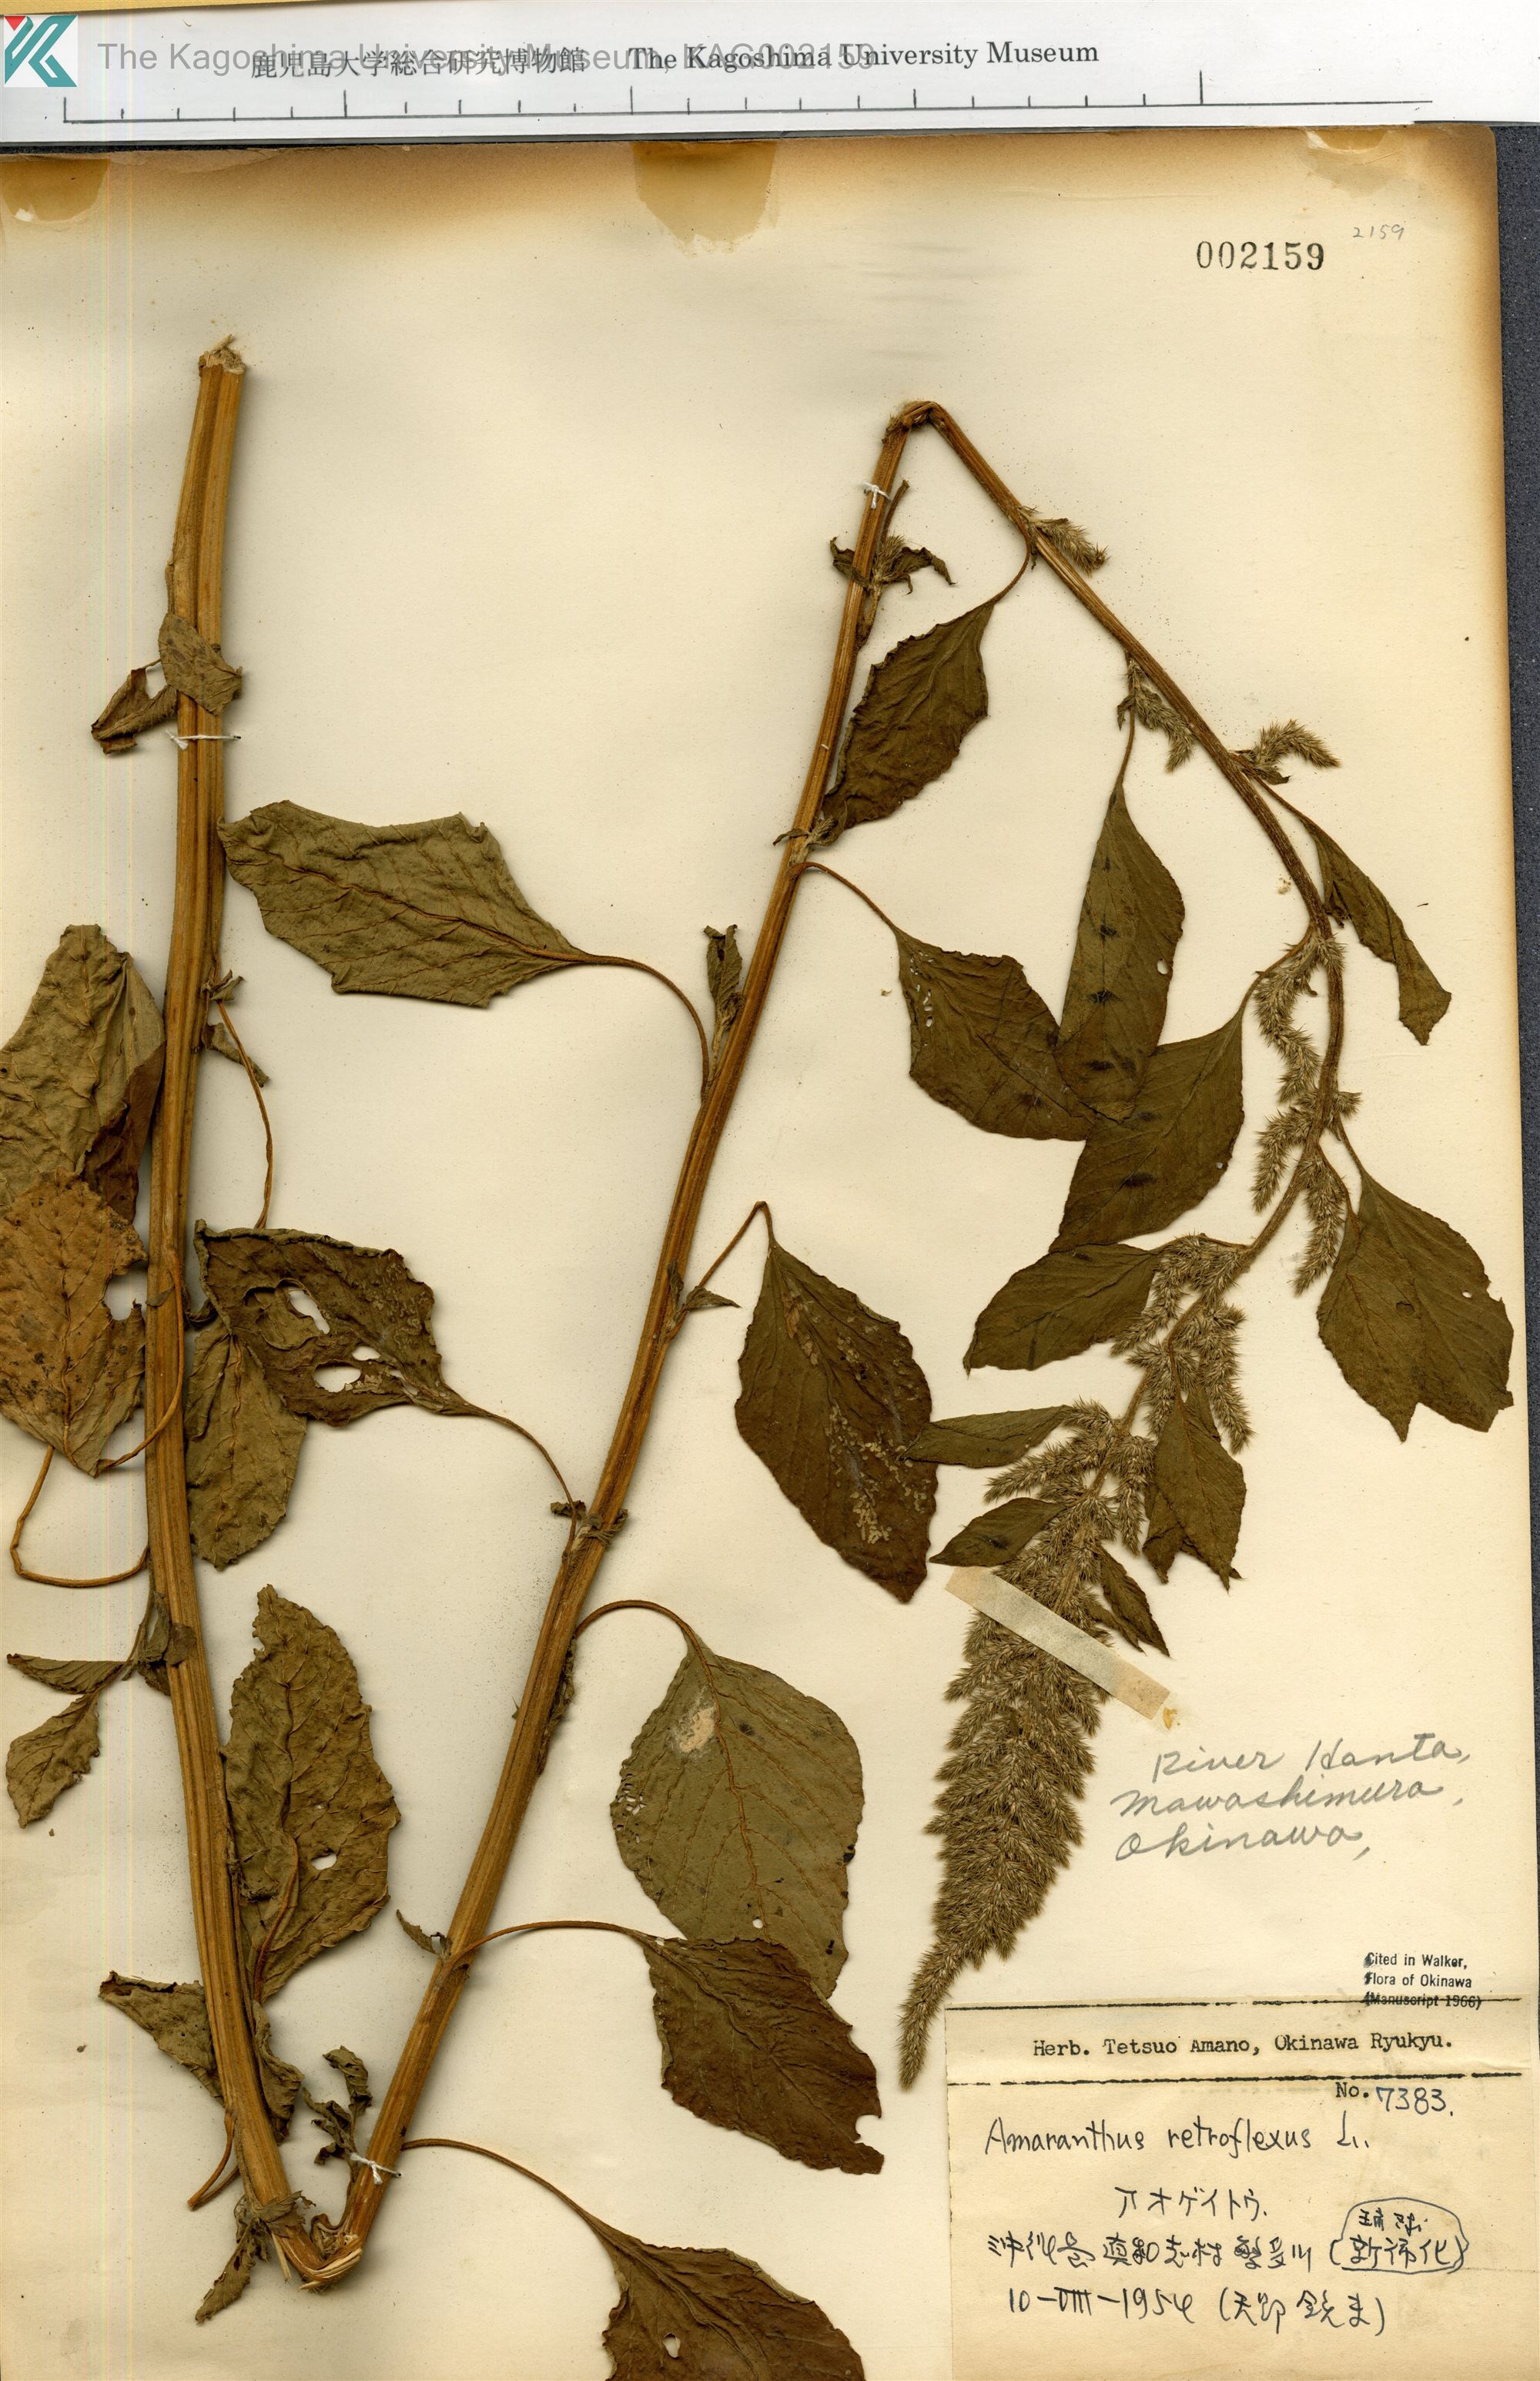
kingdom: Plantae
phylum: Tracheophyta
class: Magnoliopsida
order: Caryophyllales
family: Amaranthaceae
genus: Amaranthus
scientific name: Amaranthus retroflexus
